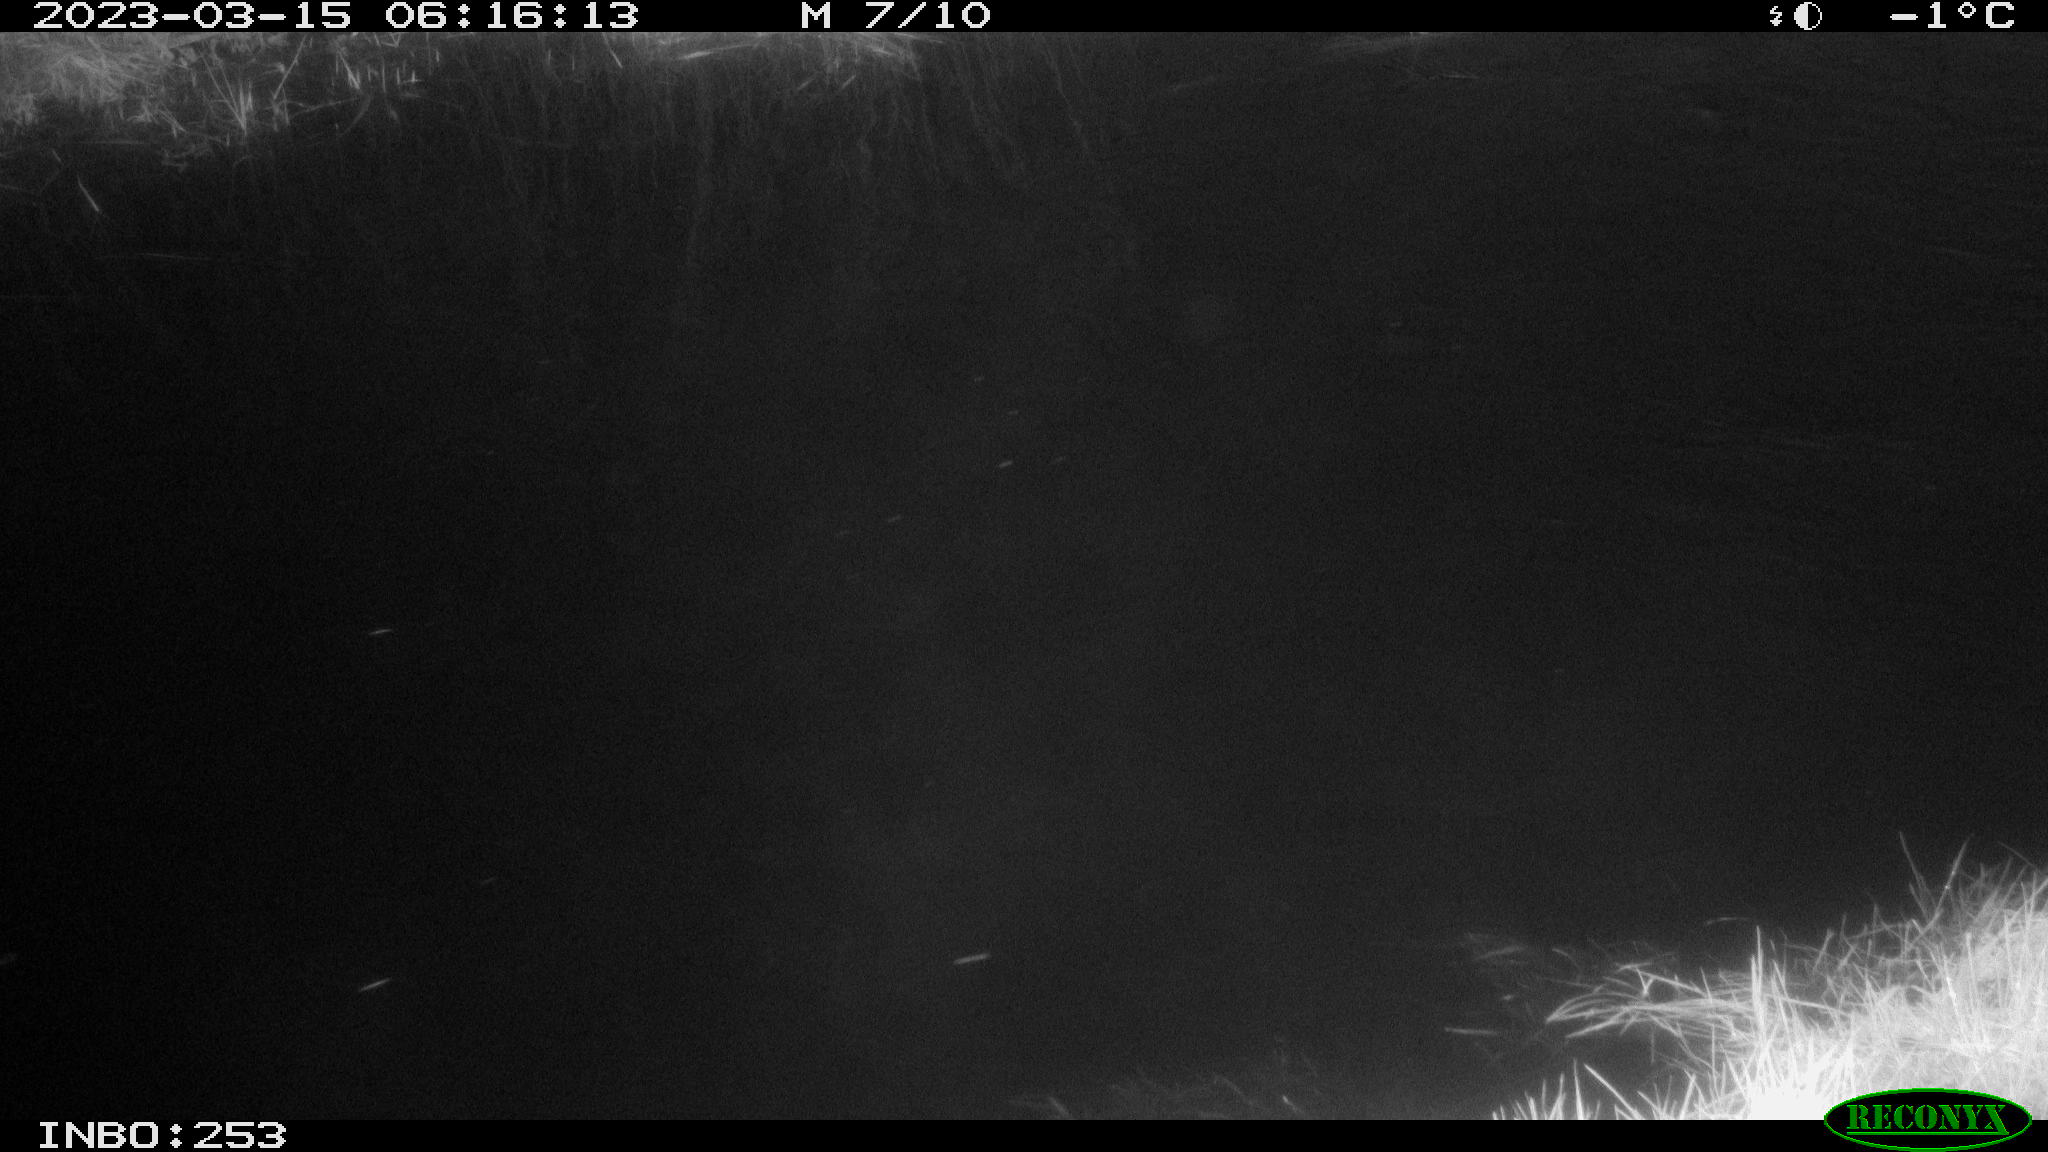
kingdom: Animalia
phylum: Chordata
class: Aves
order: Anseriformes
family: Anatidae
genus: Anas
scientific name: Anas
